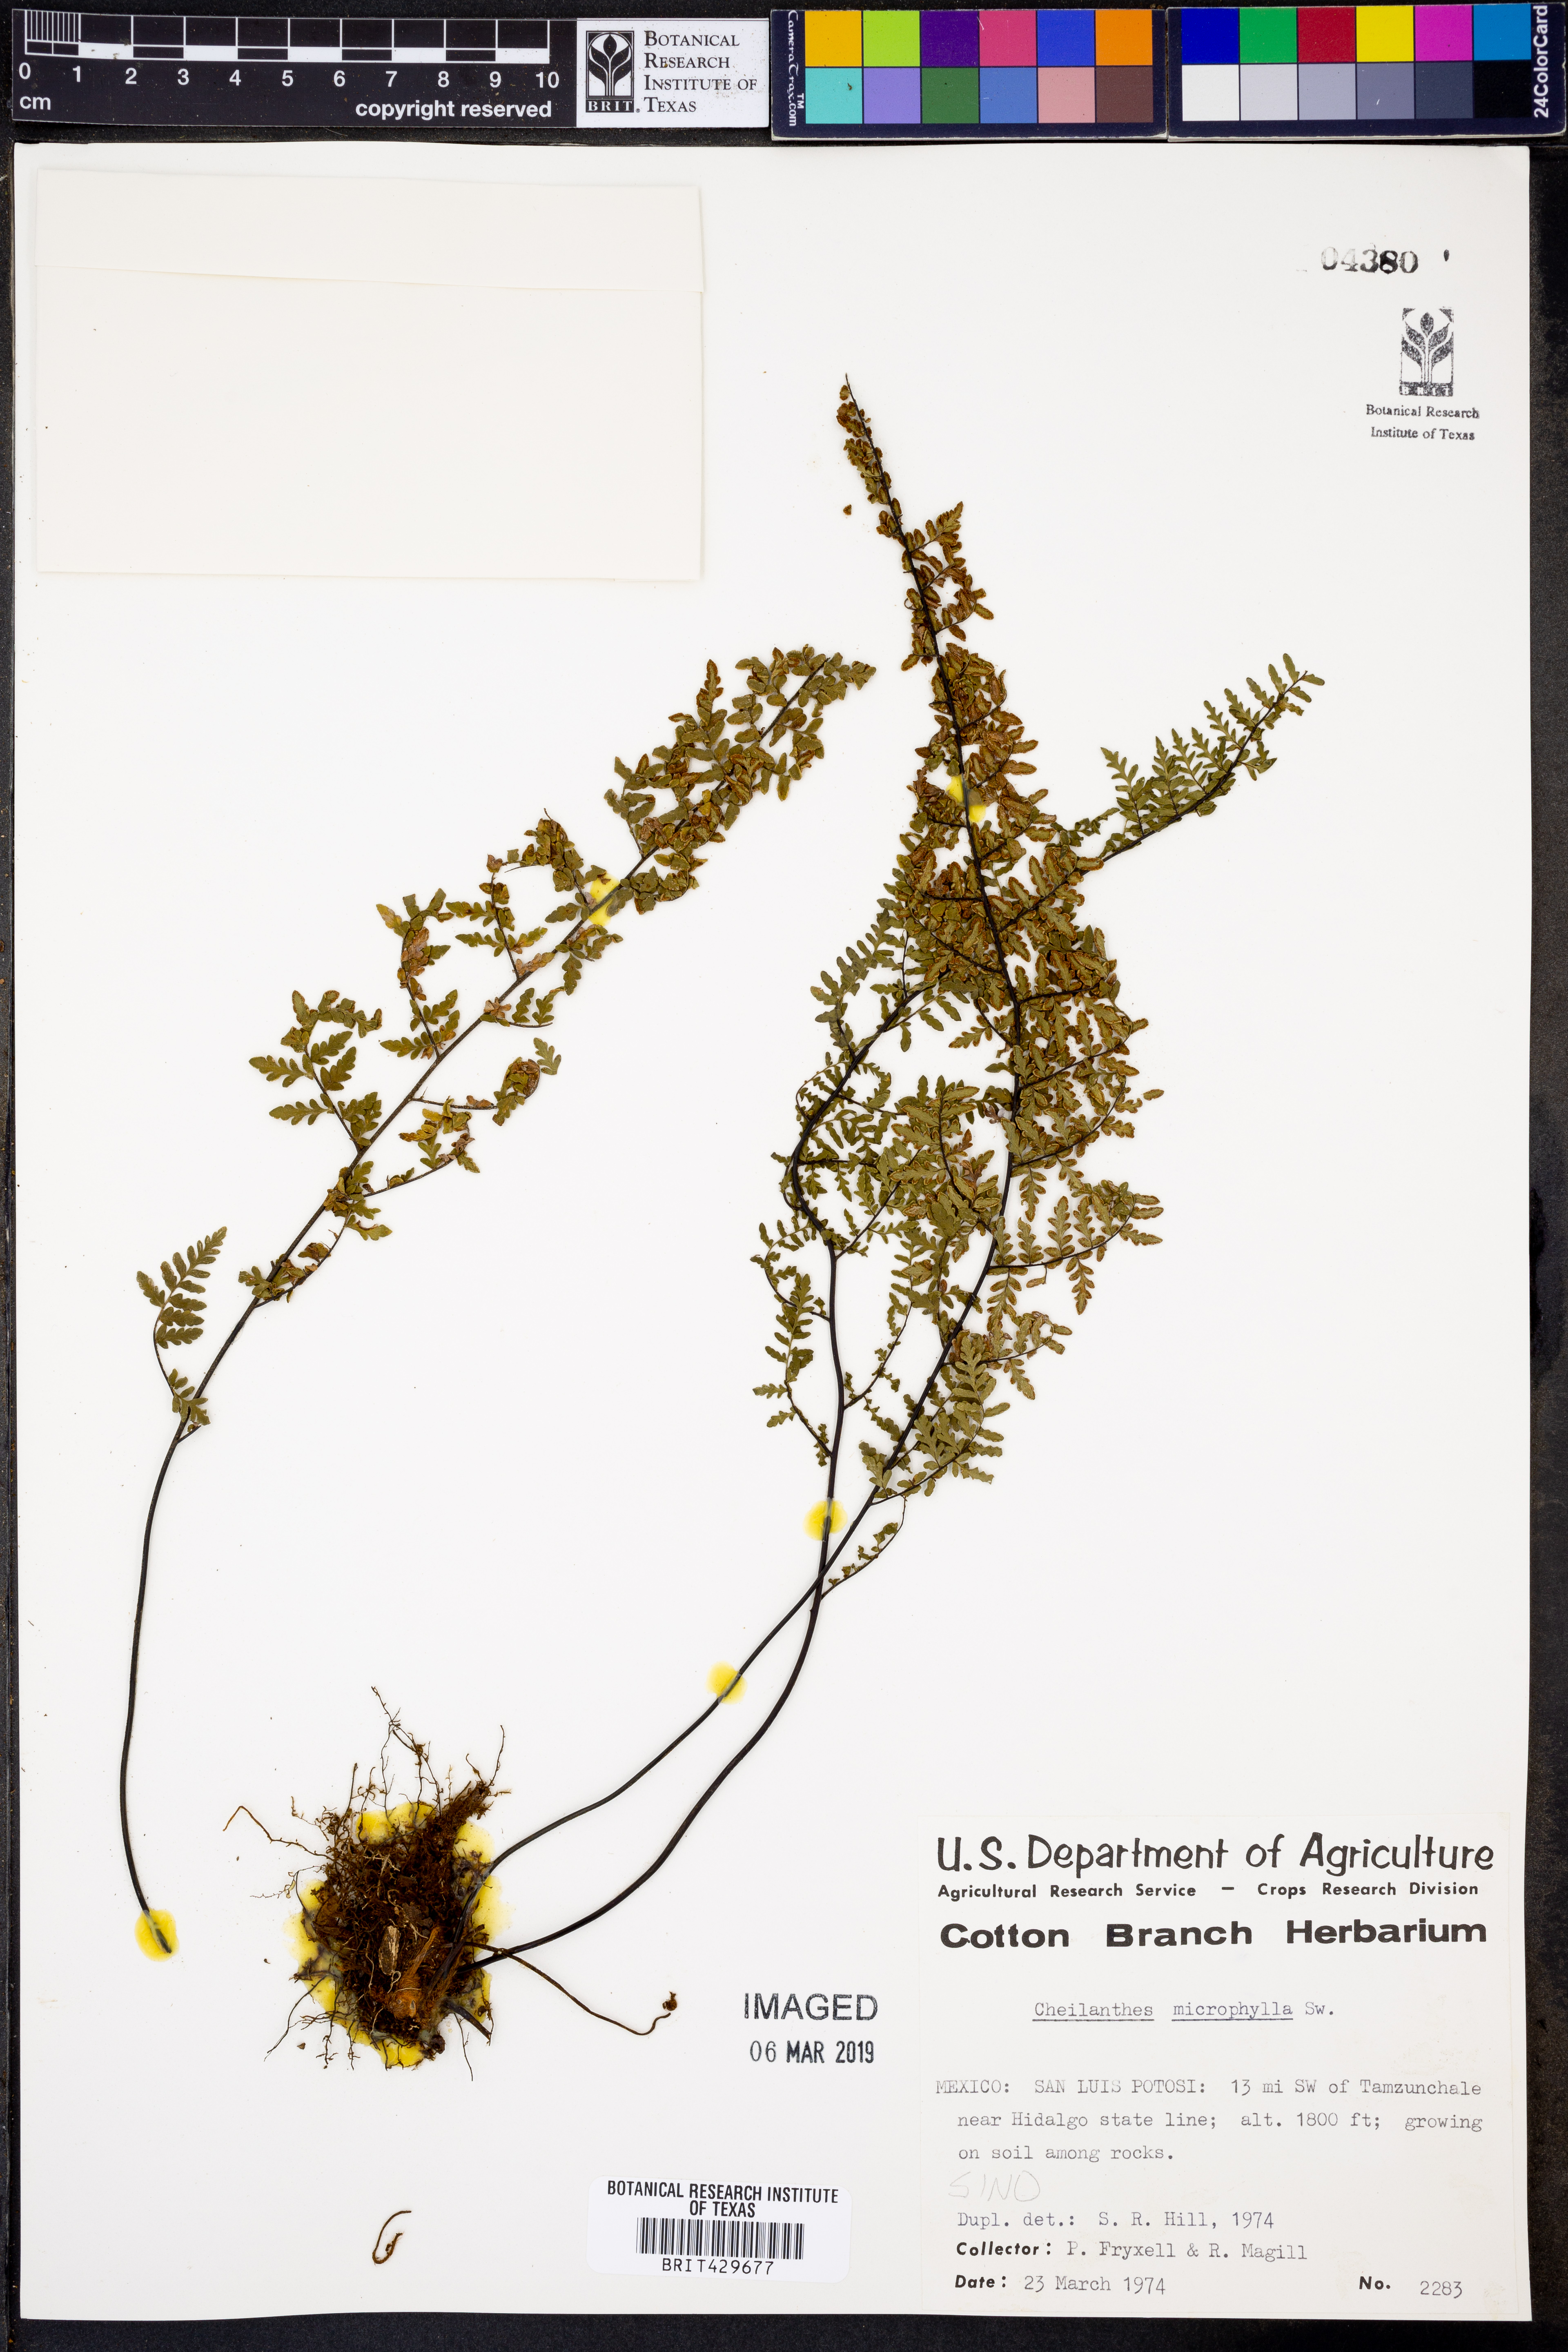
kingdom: Plantae
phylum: Tracheophyta
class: Polypodiopsida
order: Polypodiales
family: Pteridaceae
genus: Myriopteris
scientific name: Myriopteris microphylla
